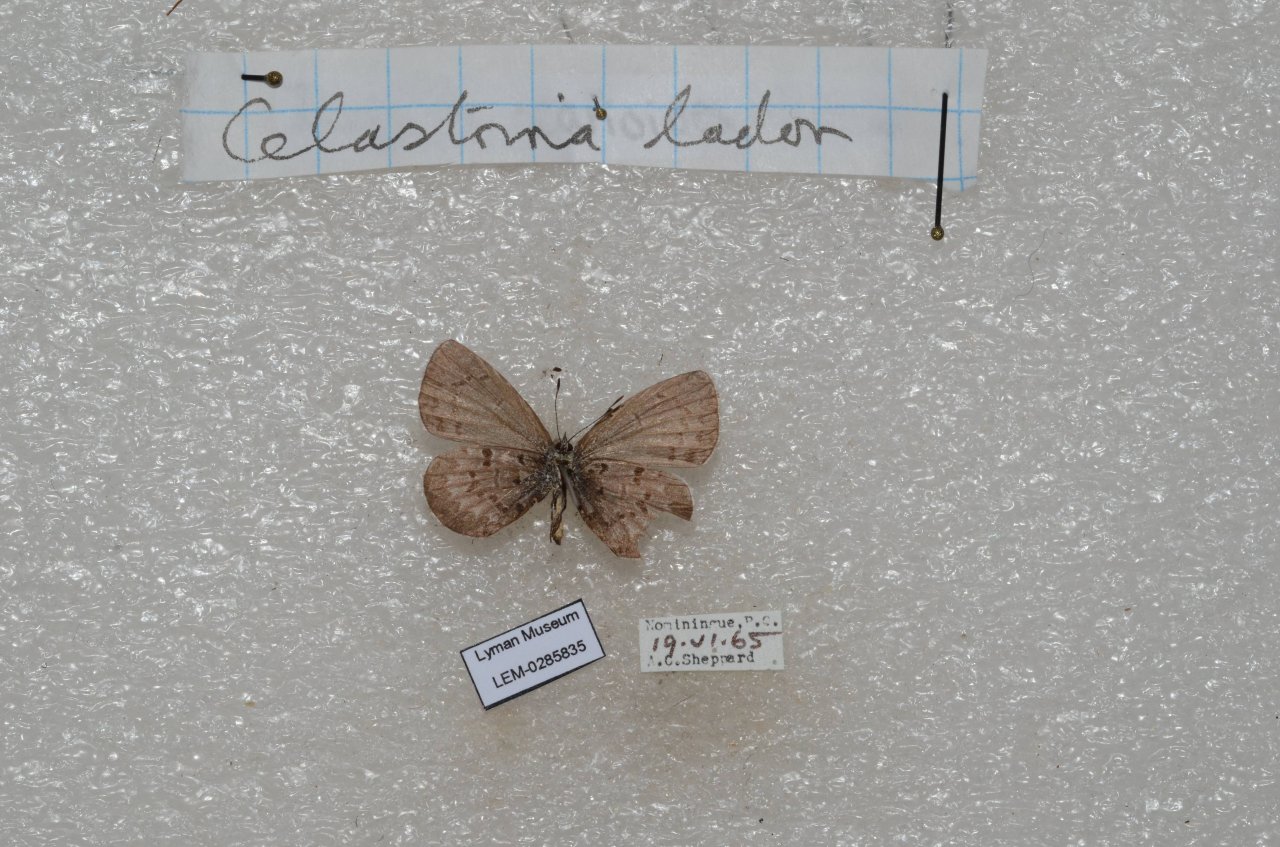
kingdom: Animalia
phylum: Arthropoda
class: Insecta
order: Lepidoptera
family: Lycaenidae
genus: Celastrina
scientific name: Celastrina lucia
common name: Northern Spring Azure
